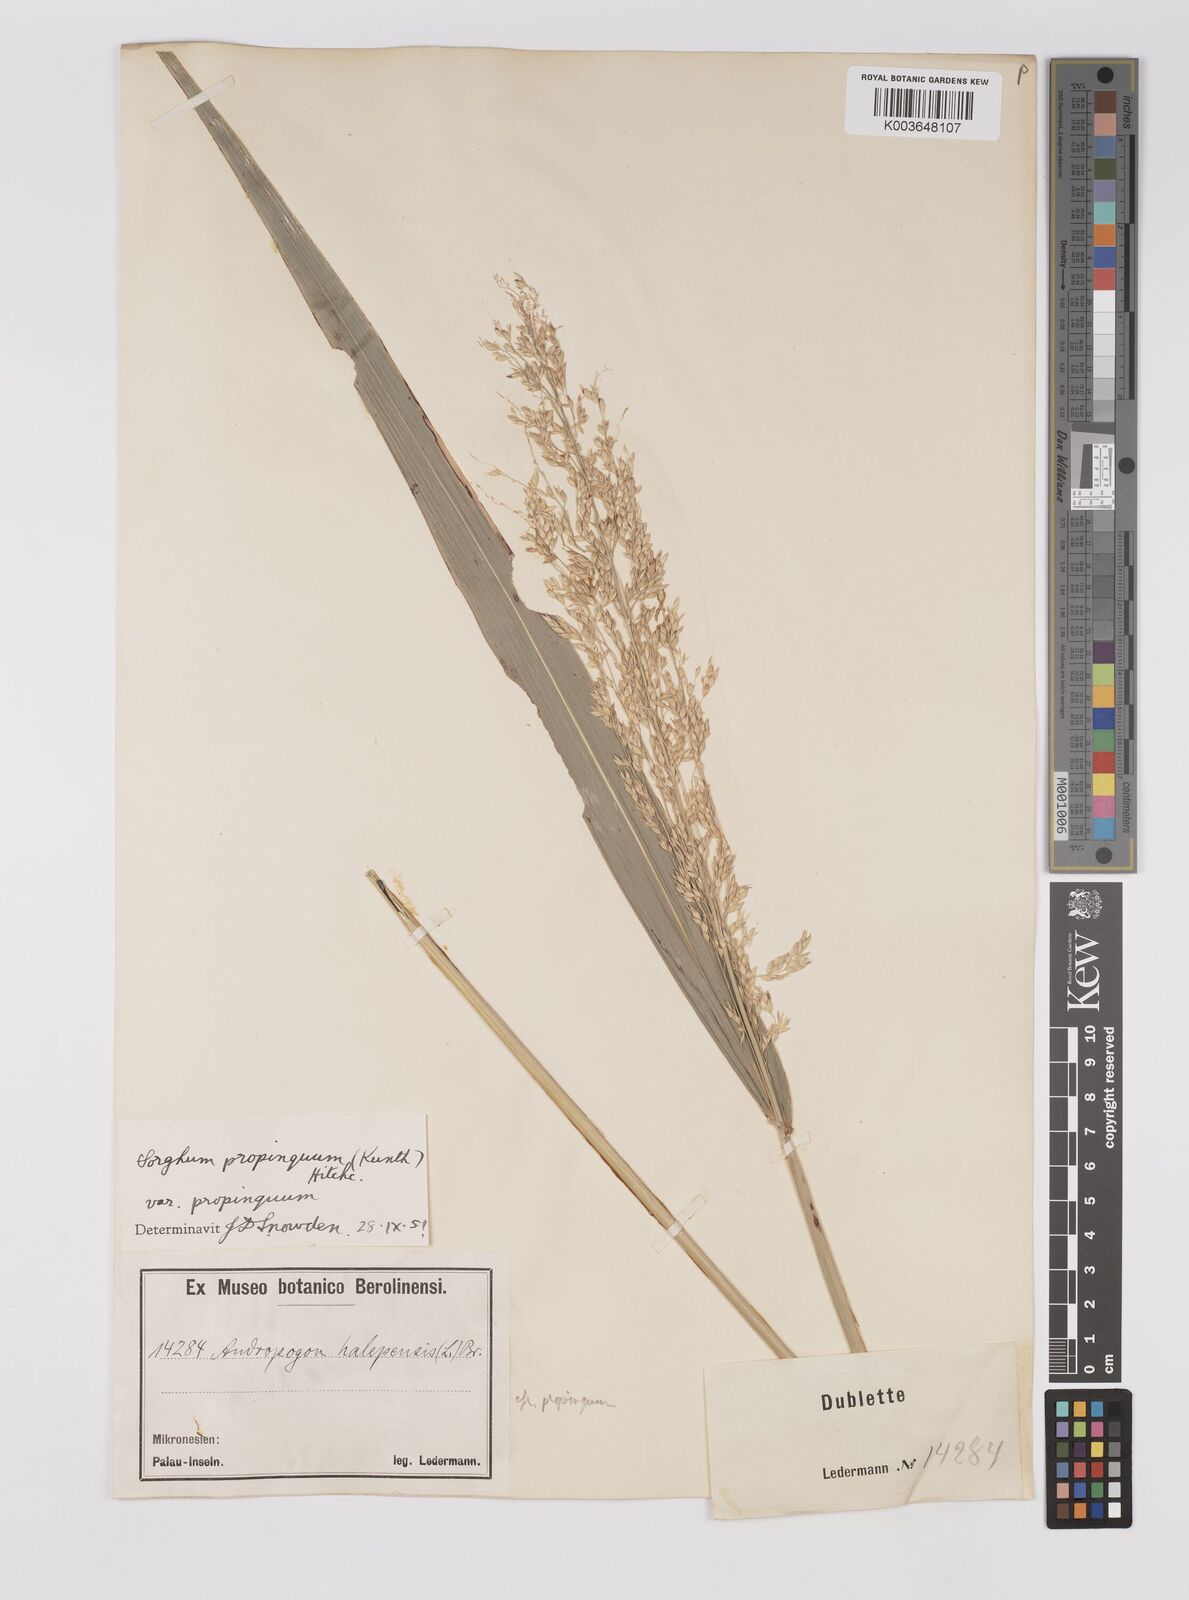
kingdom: Plantae
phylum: Tracheophyta
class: Liliopsida
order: Poales
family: Poaceae
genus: Sorghum
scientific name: Sorghum propinquum
